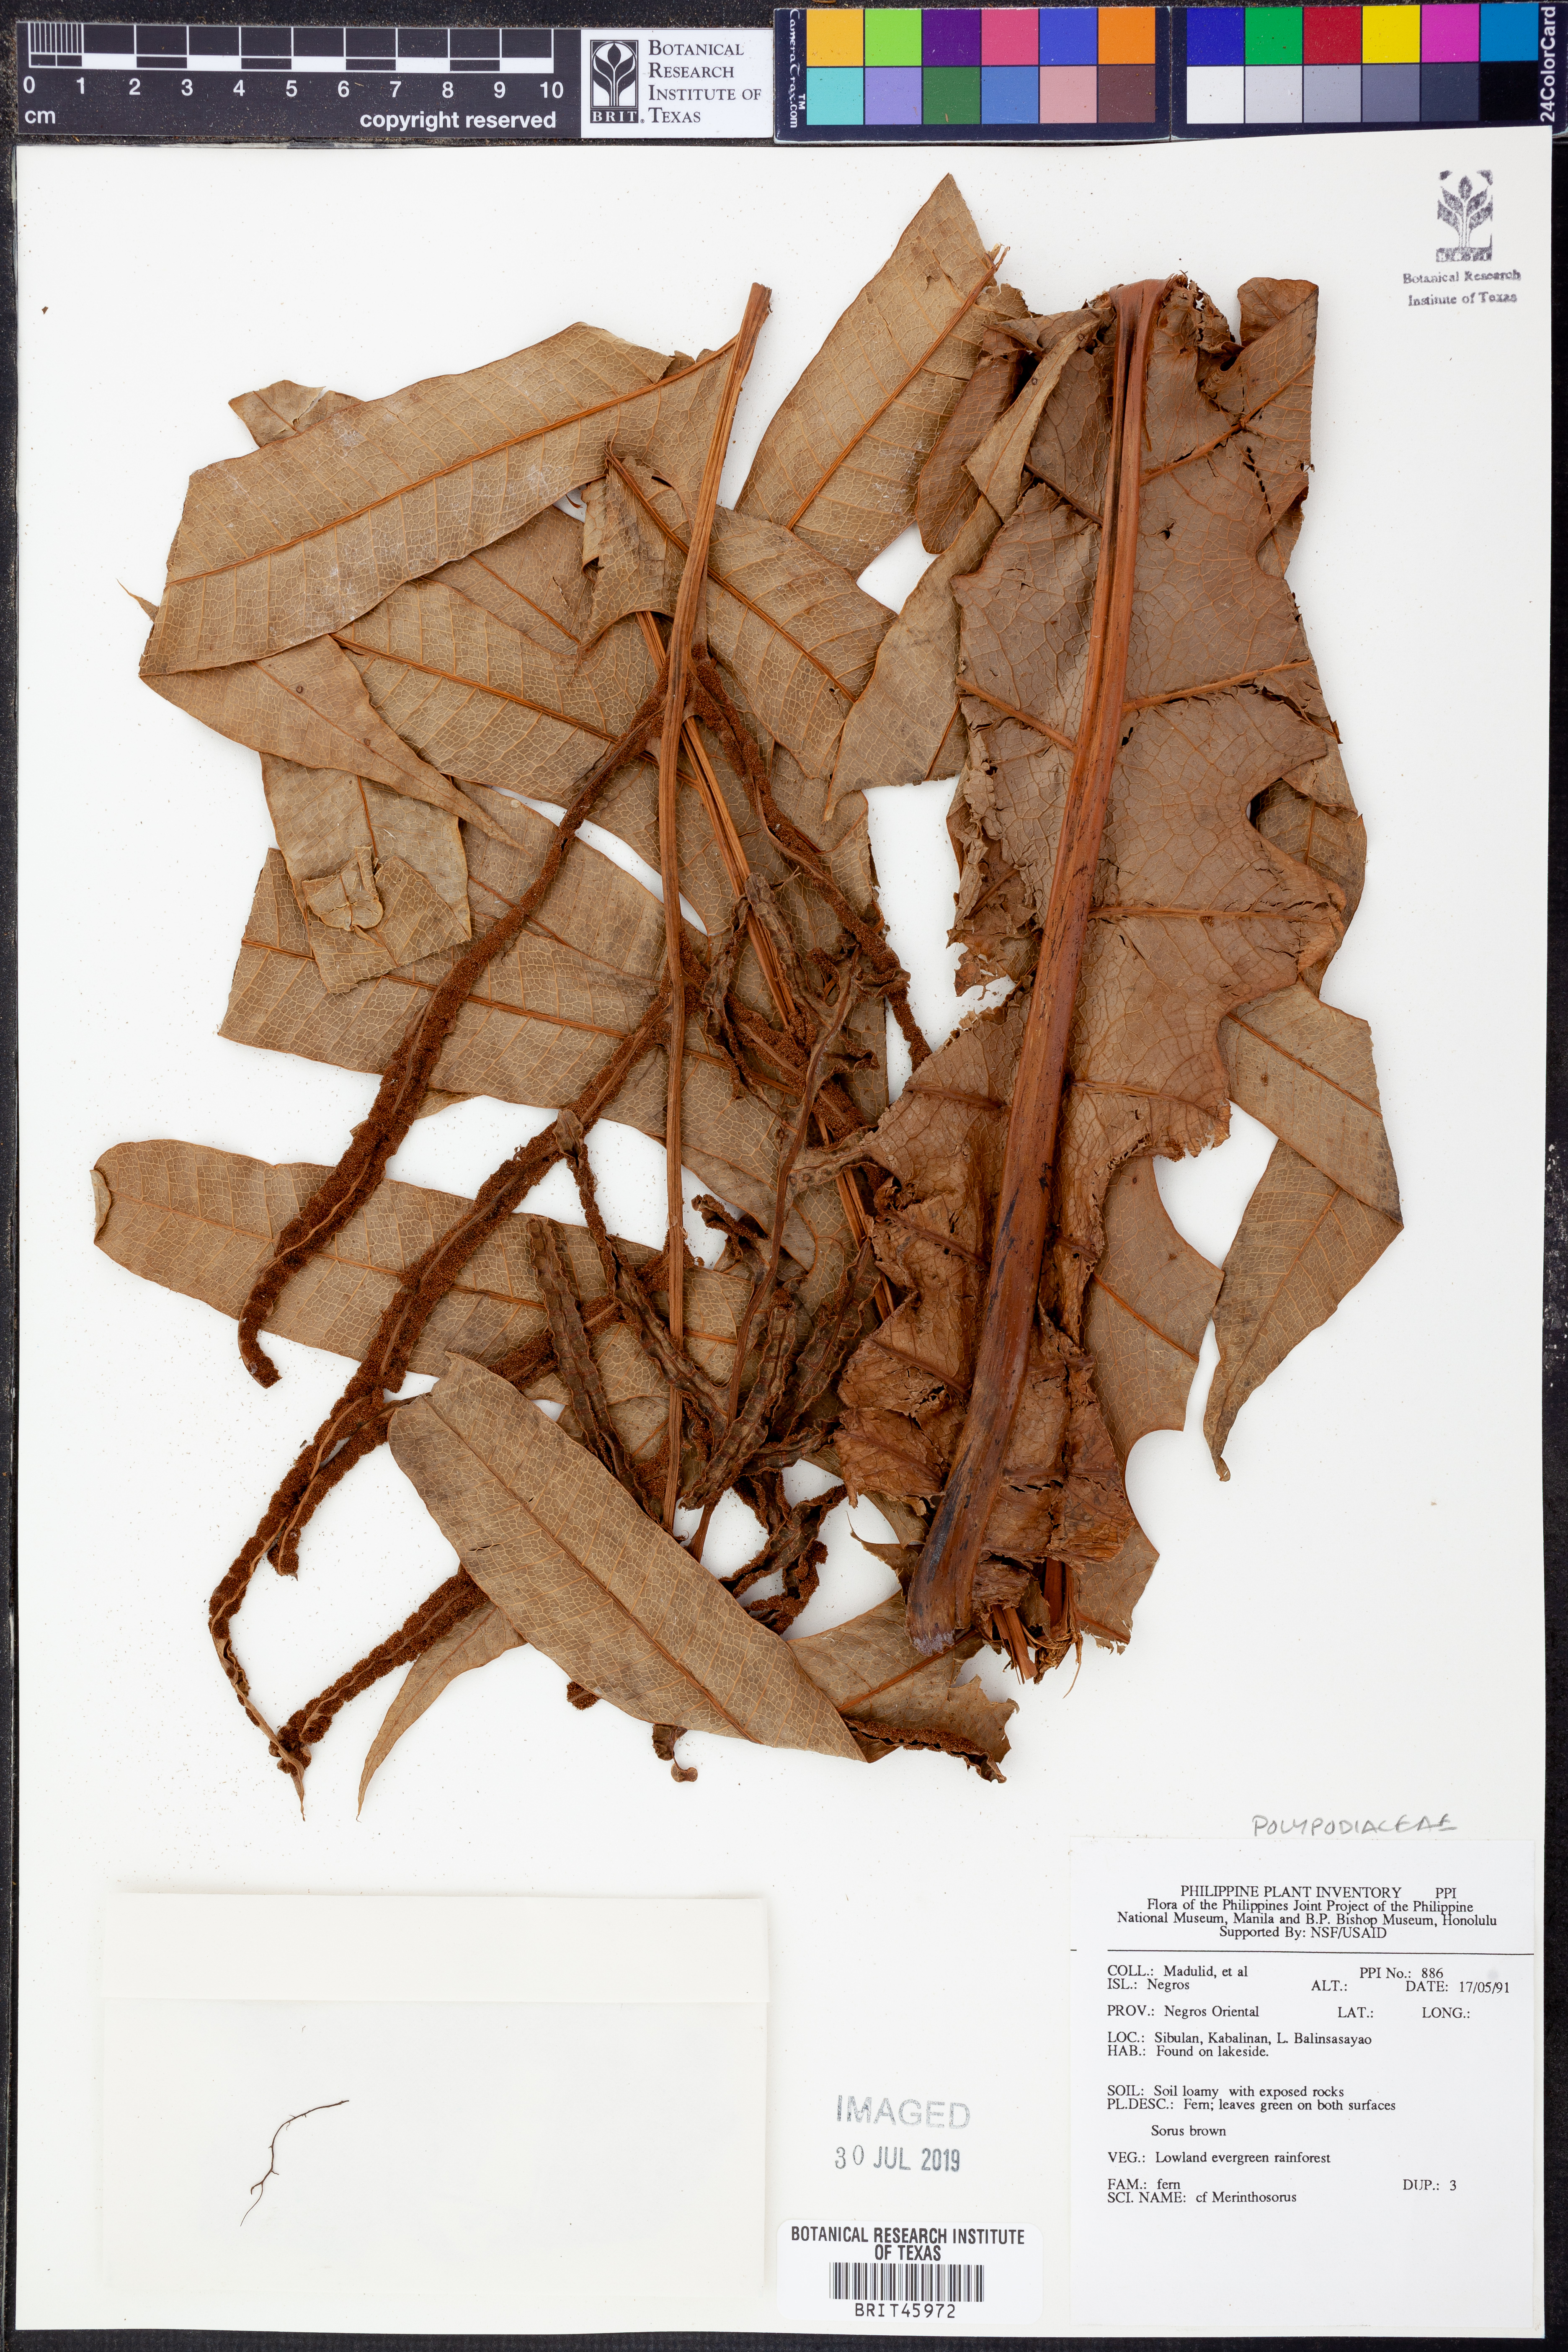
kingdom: Plantae
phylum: Tracheophyta
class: Polypodiopsida
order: Polypodiales
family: Polypodiaceae
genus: Drynaria
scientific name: Drynaria
